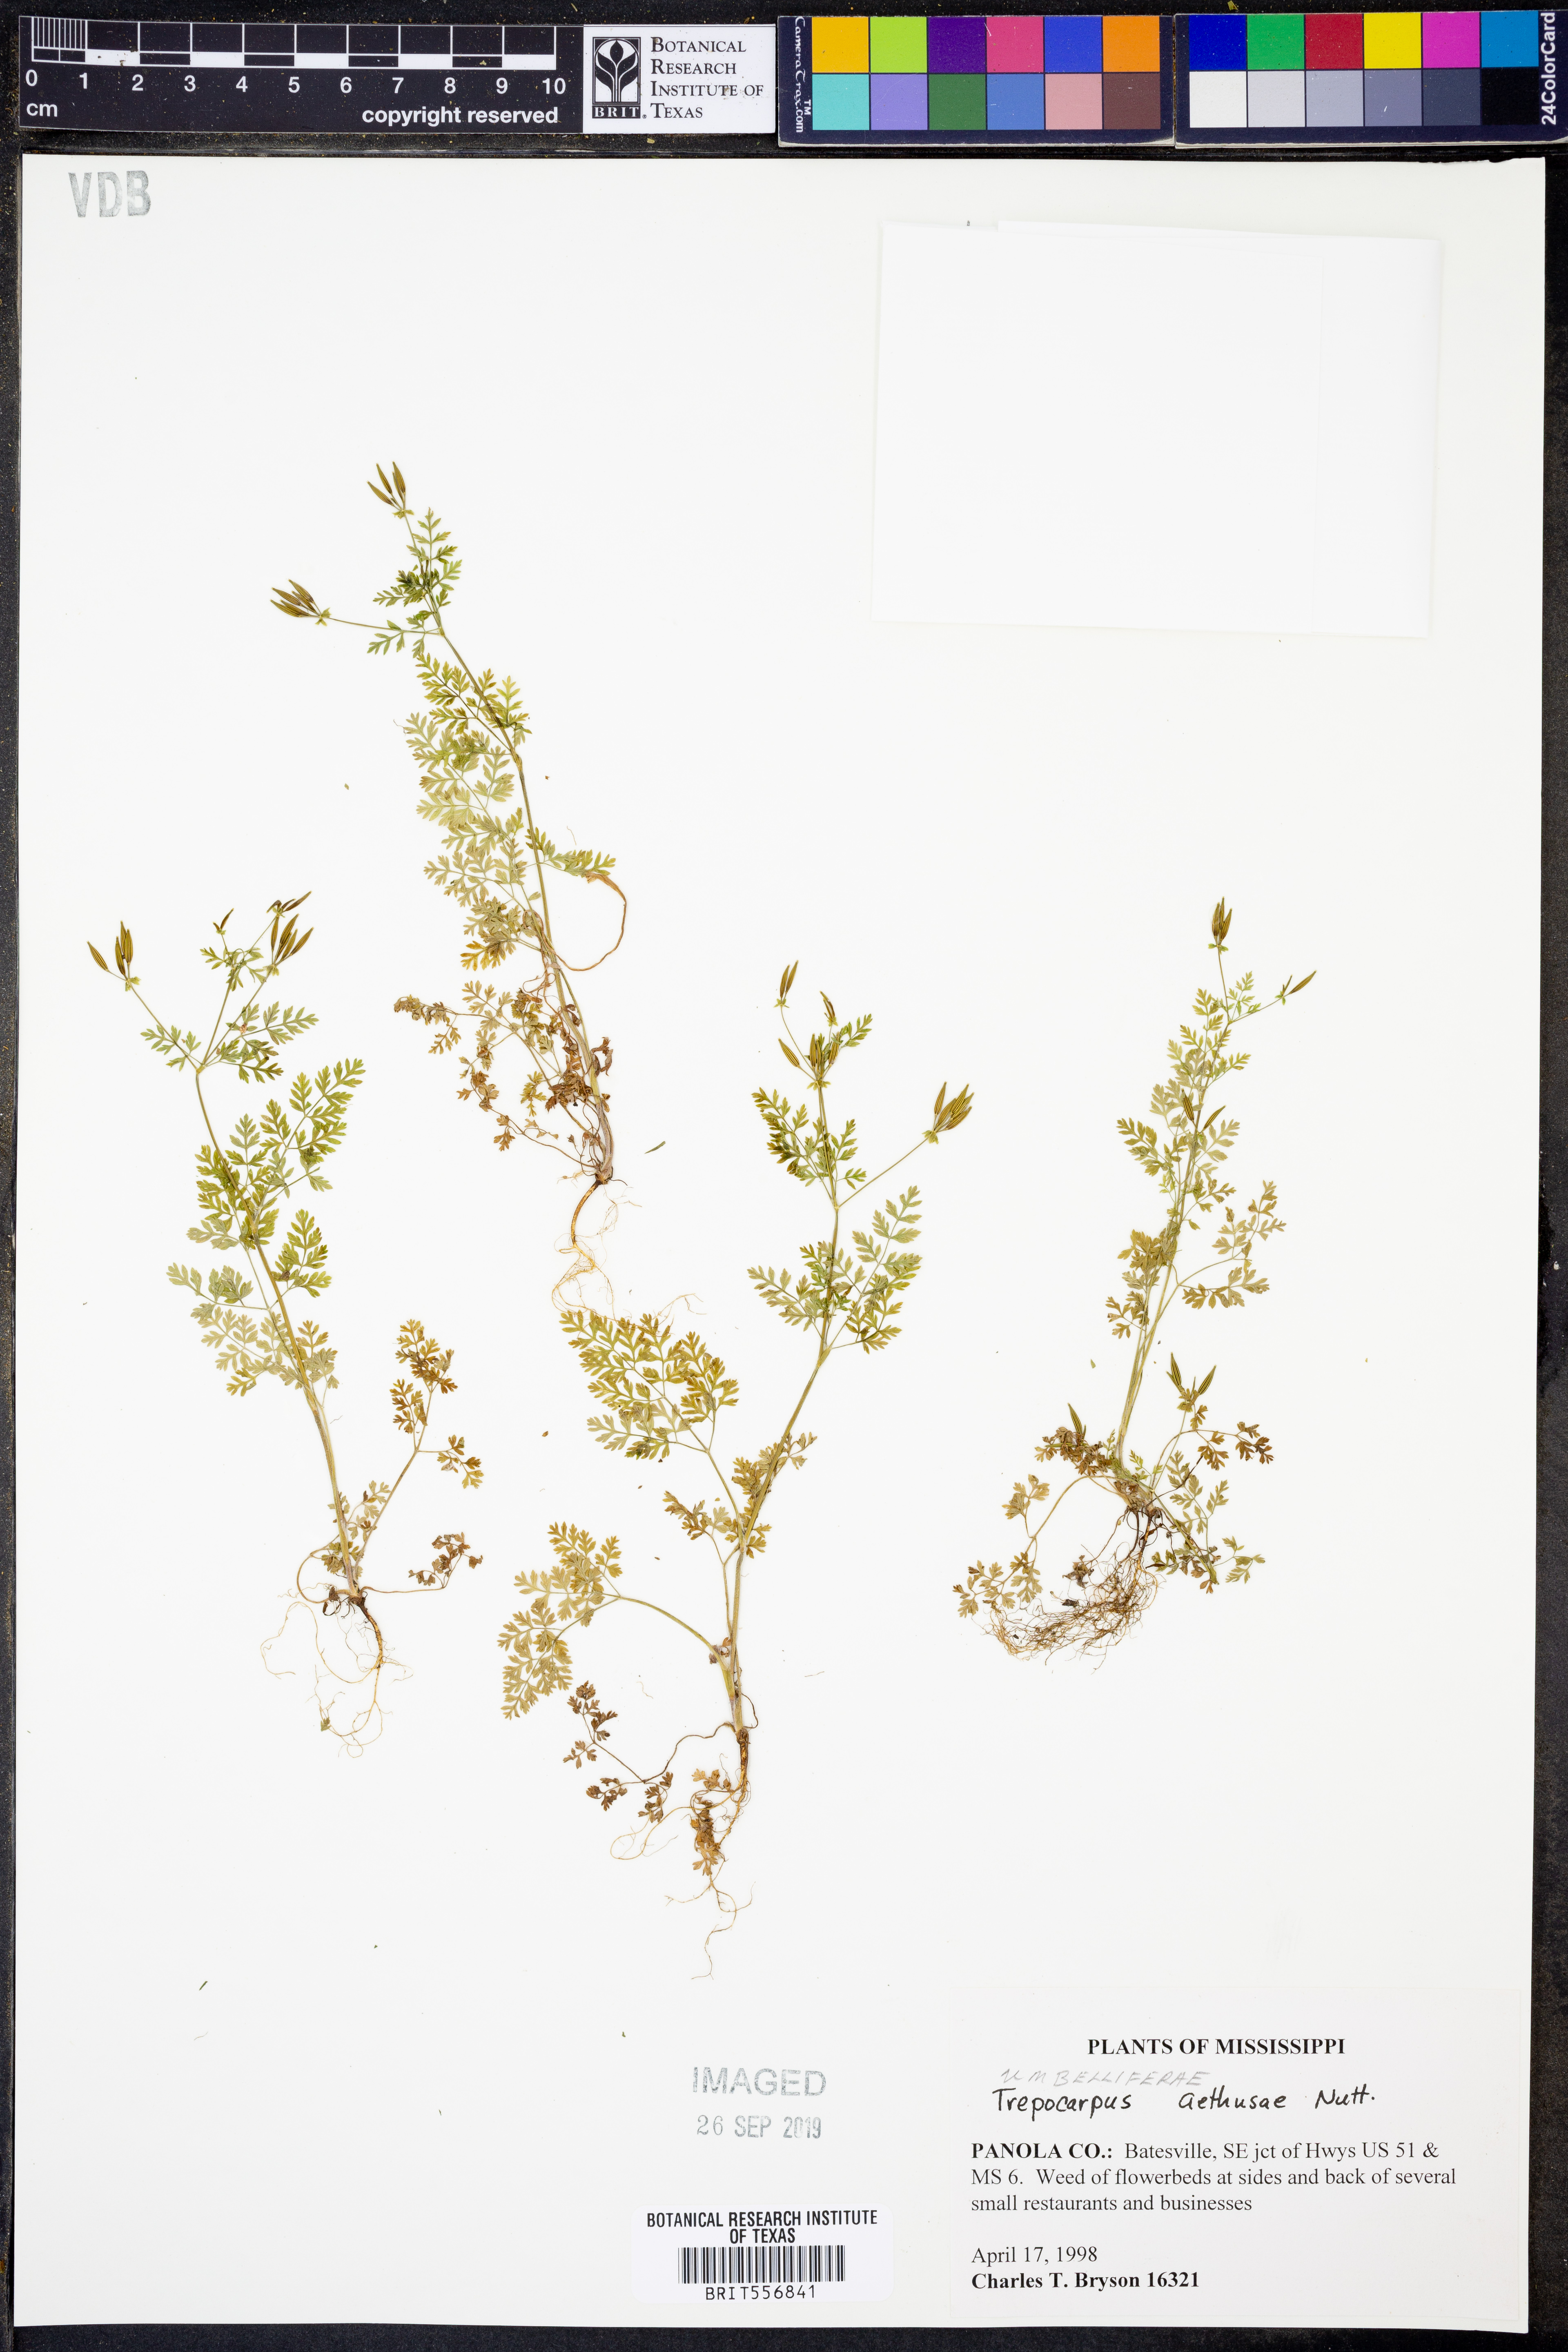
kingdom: Plantae
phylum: Tracheophyta
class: Magnoliopsida
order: Apiales
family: Apiaceae
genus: Trepocarpus
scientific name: Trepocarpus aethusae
